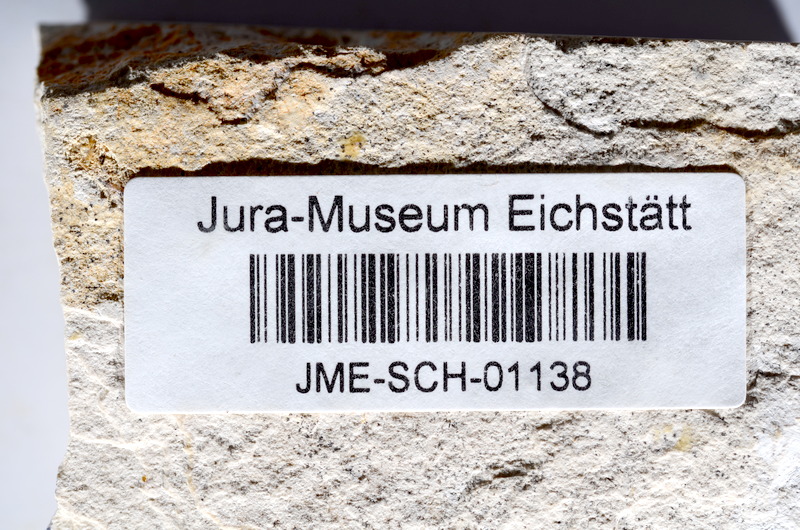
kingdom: Animalia
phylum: Chordata
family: Ascalaboidae
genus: Tharsis
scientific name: Tharsis dubius
